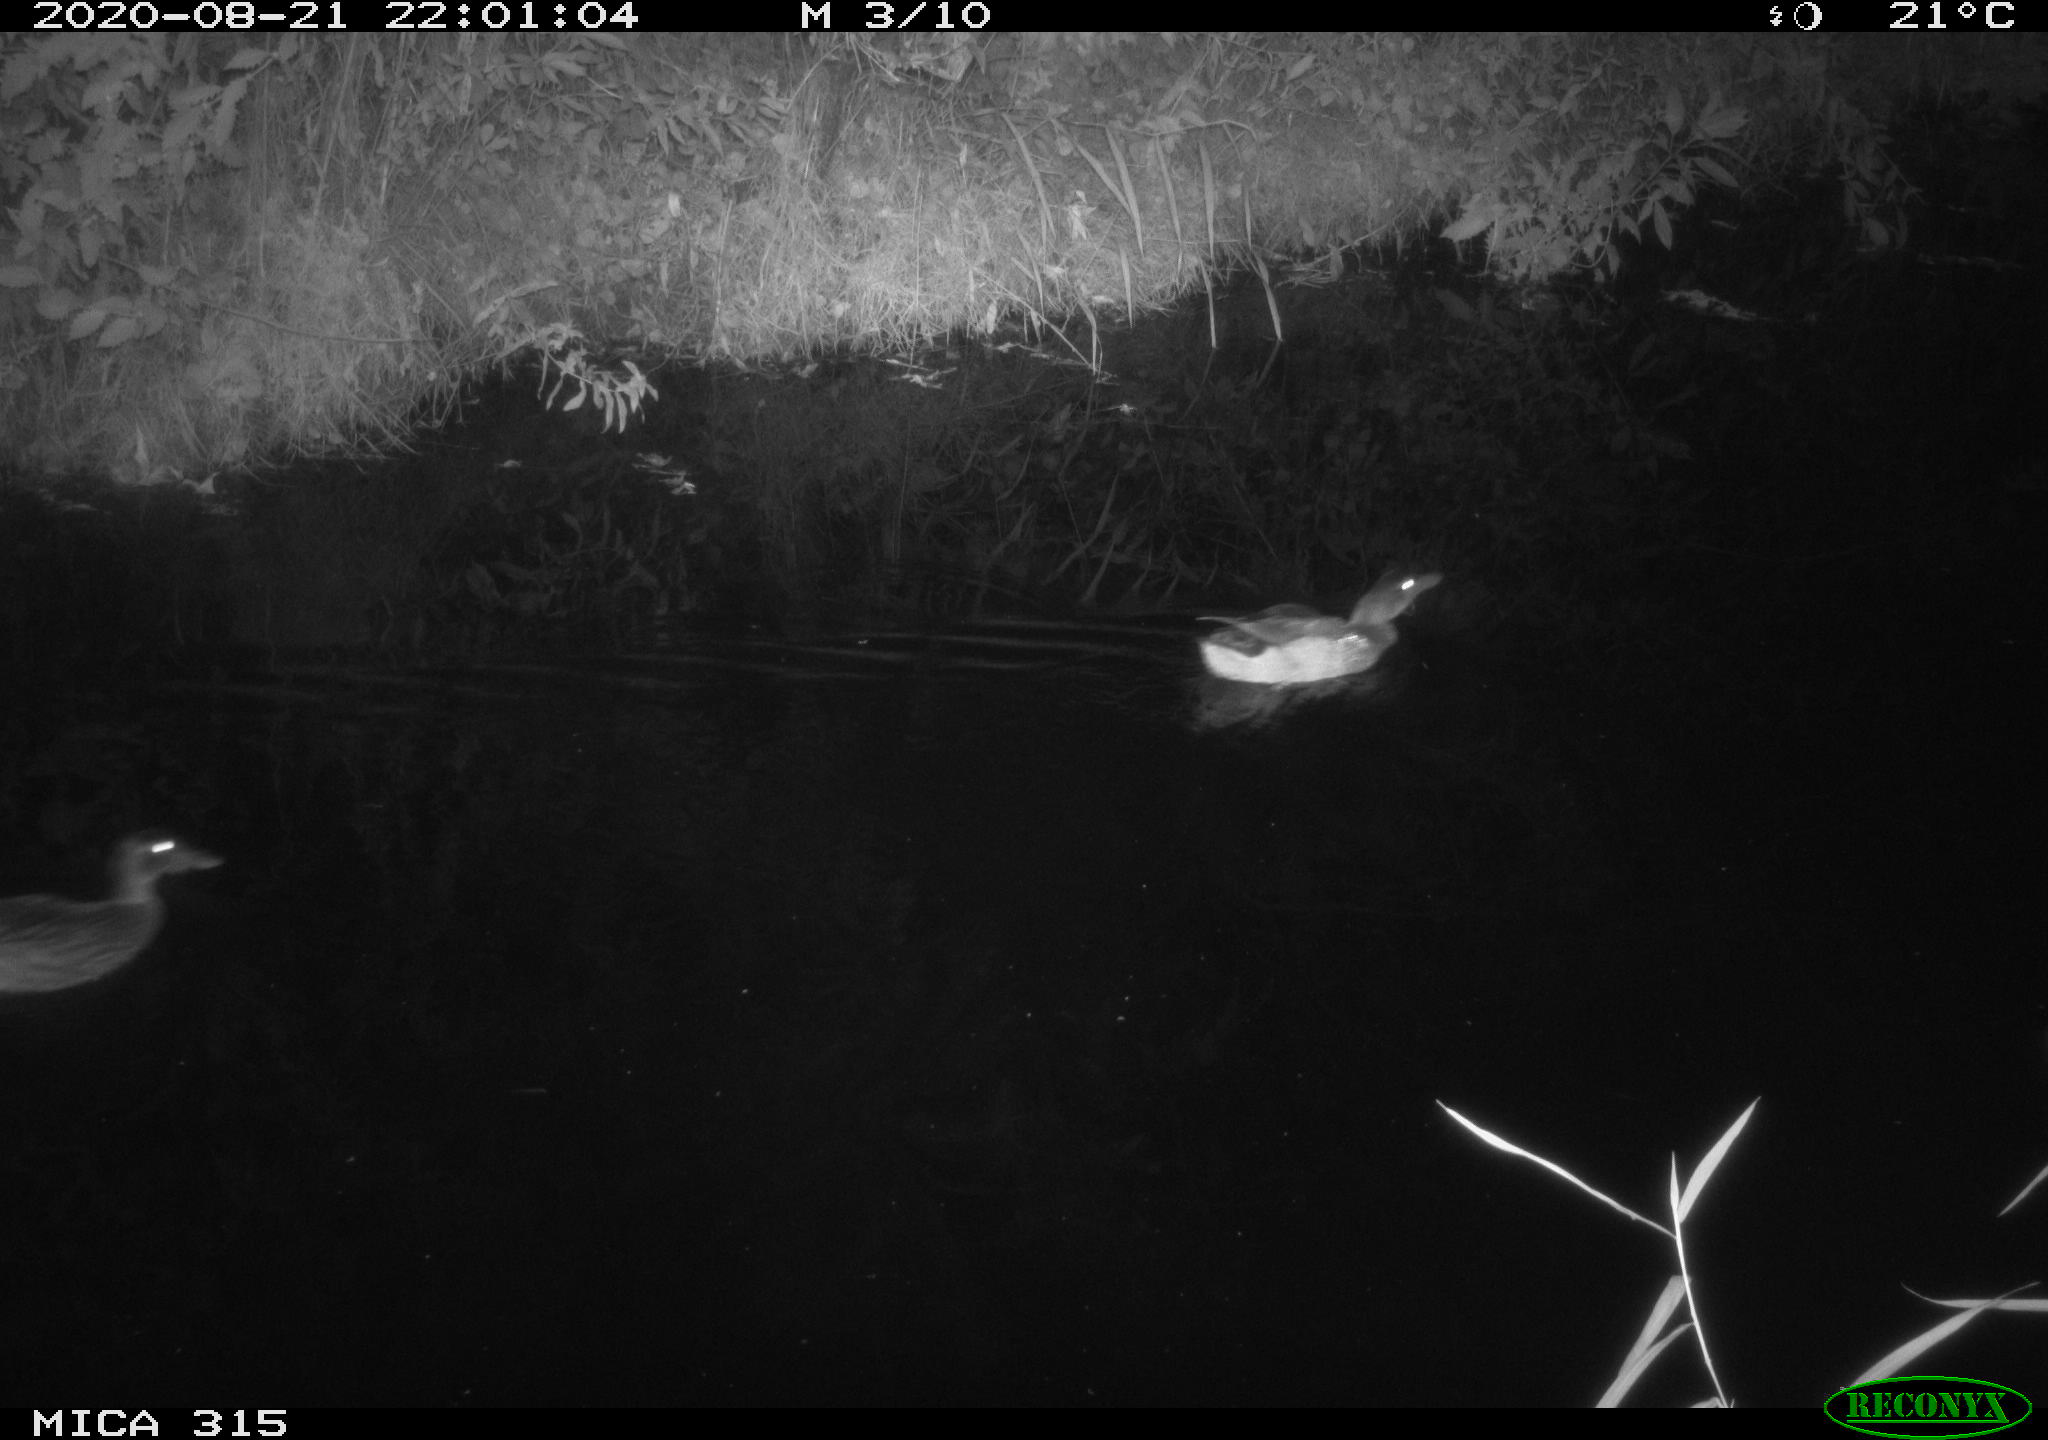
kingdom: Animalia
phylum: Chordata
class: Aves
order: Anseriformes
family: Anatidae
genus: Anas
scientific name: Anas platyrhynchos
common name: Mallard
